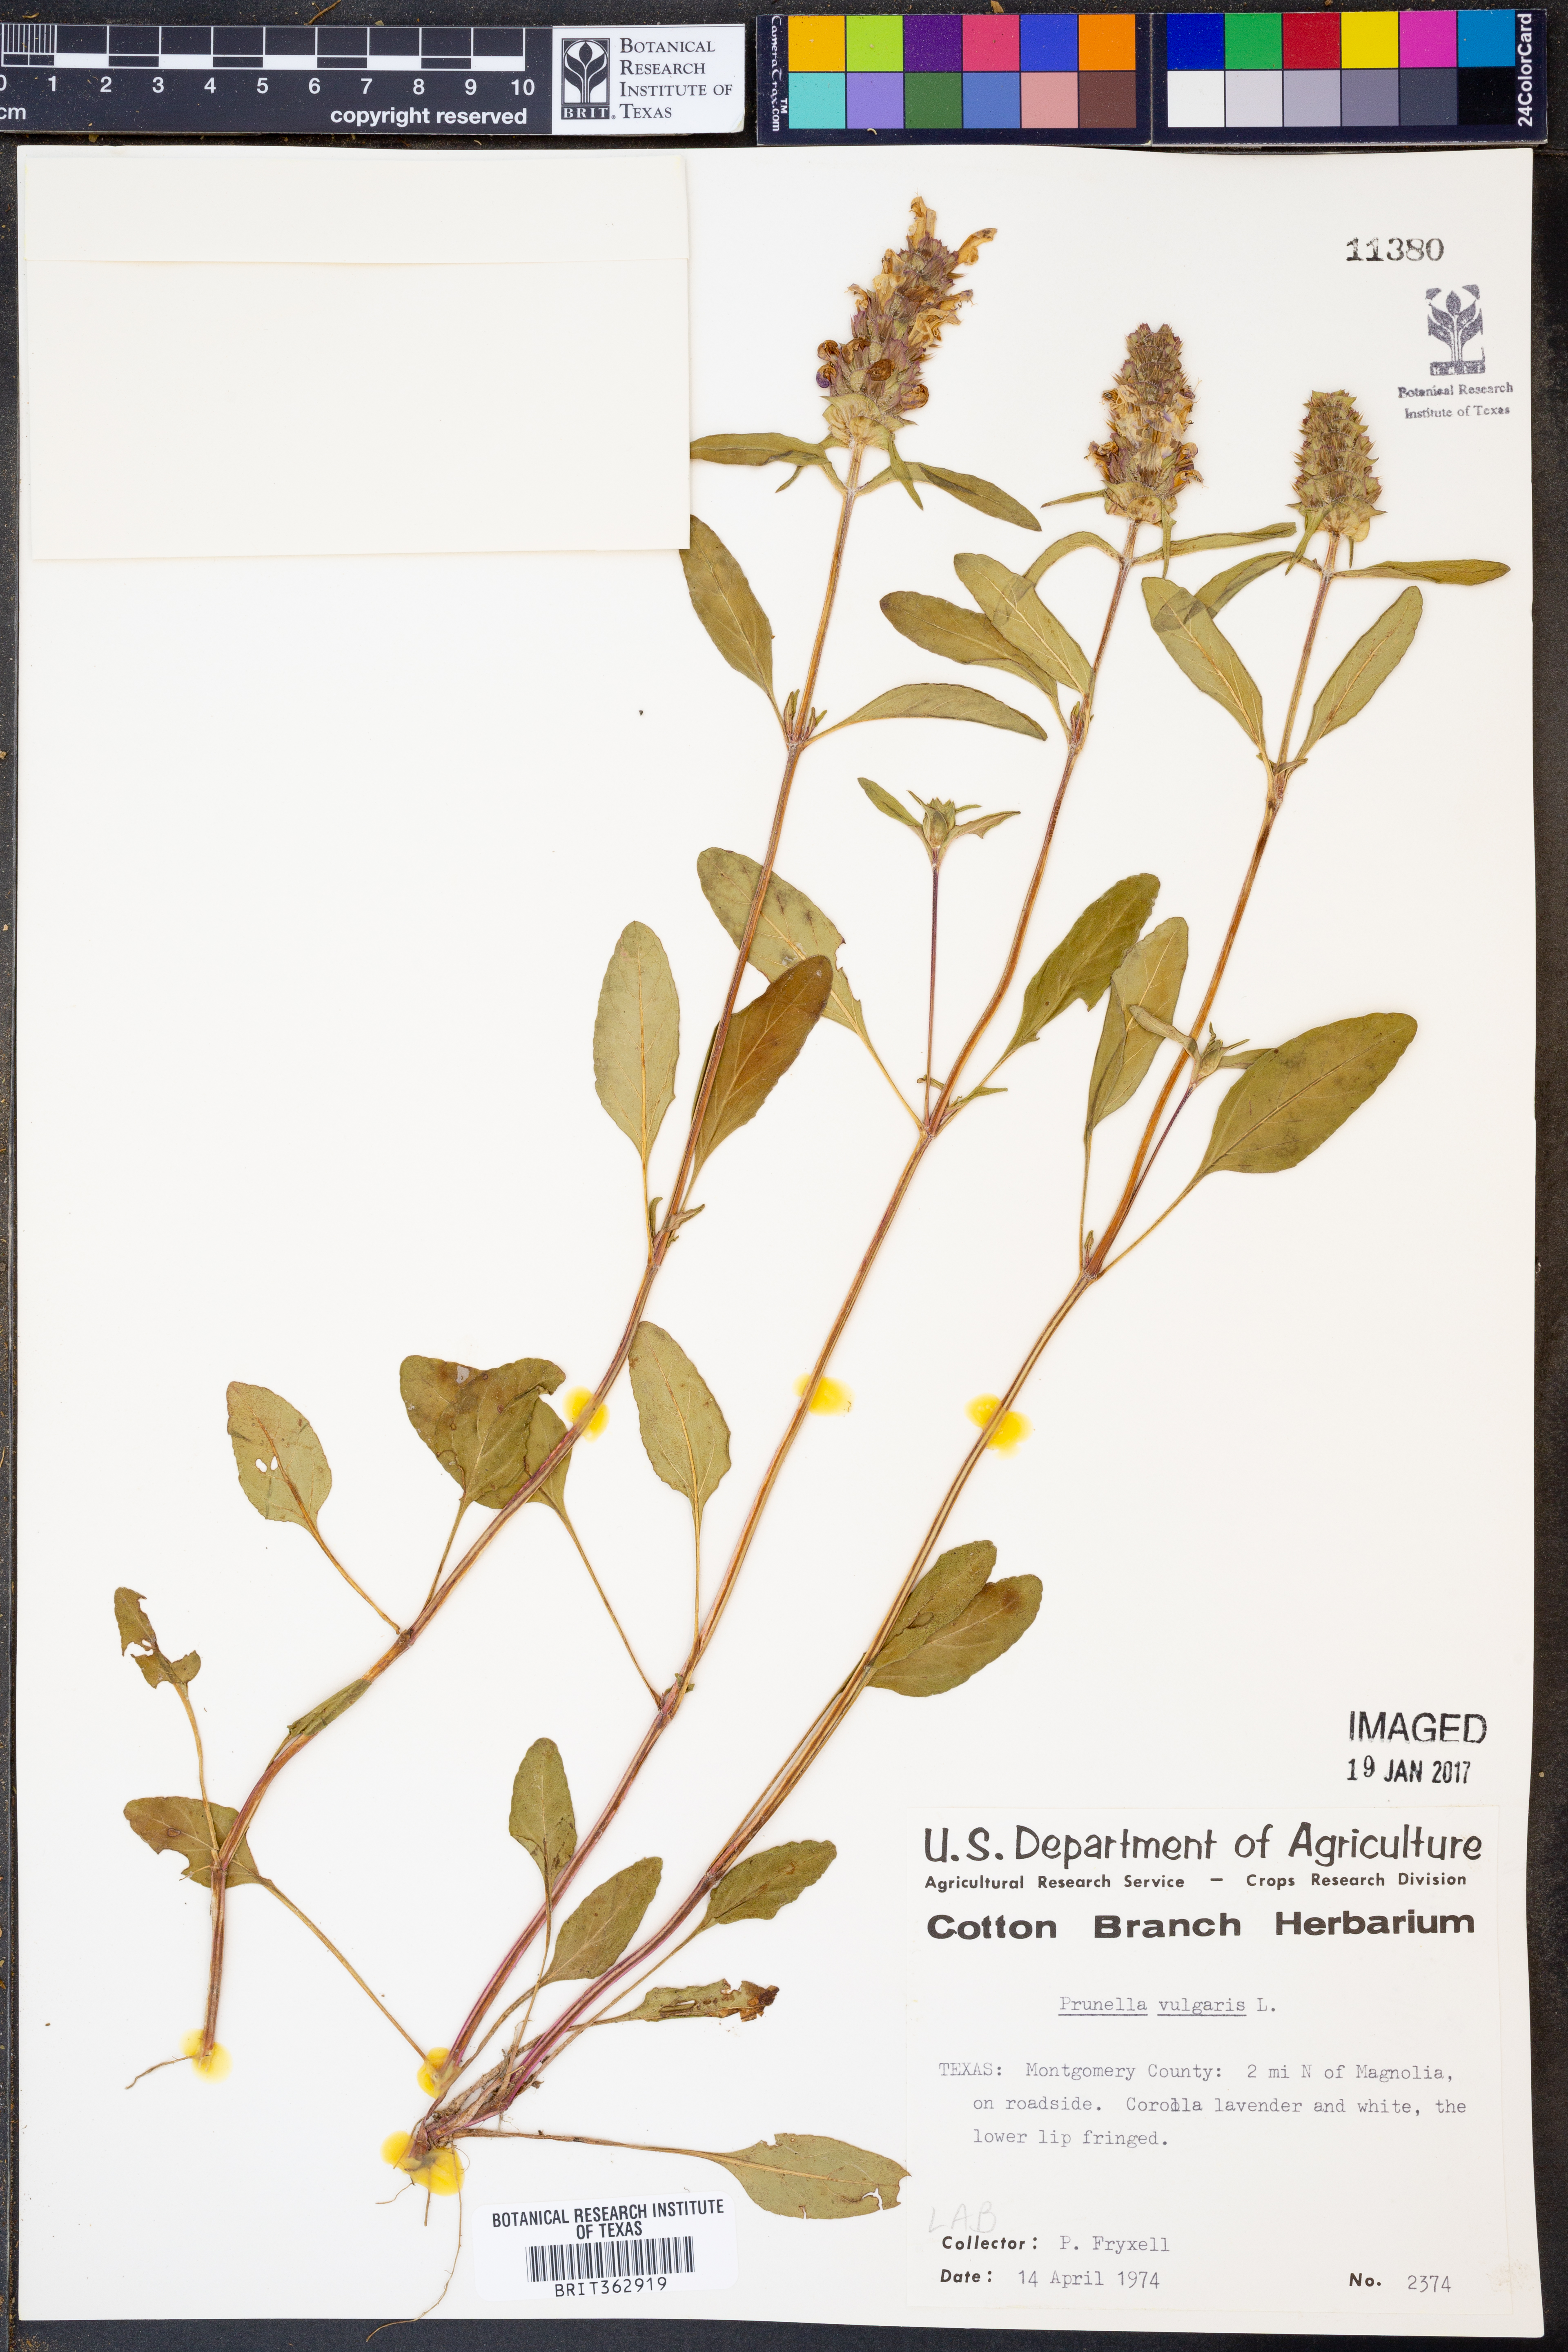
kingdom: Plantae
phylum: Tracheophyta
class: Magnoliopsida
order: Lamiales
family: Lamiaceae
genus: Prunella
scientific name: Prunella vulgaris
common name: Heal-all
